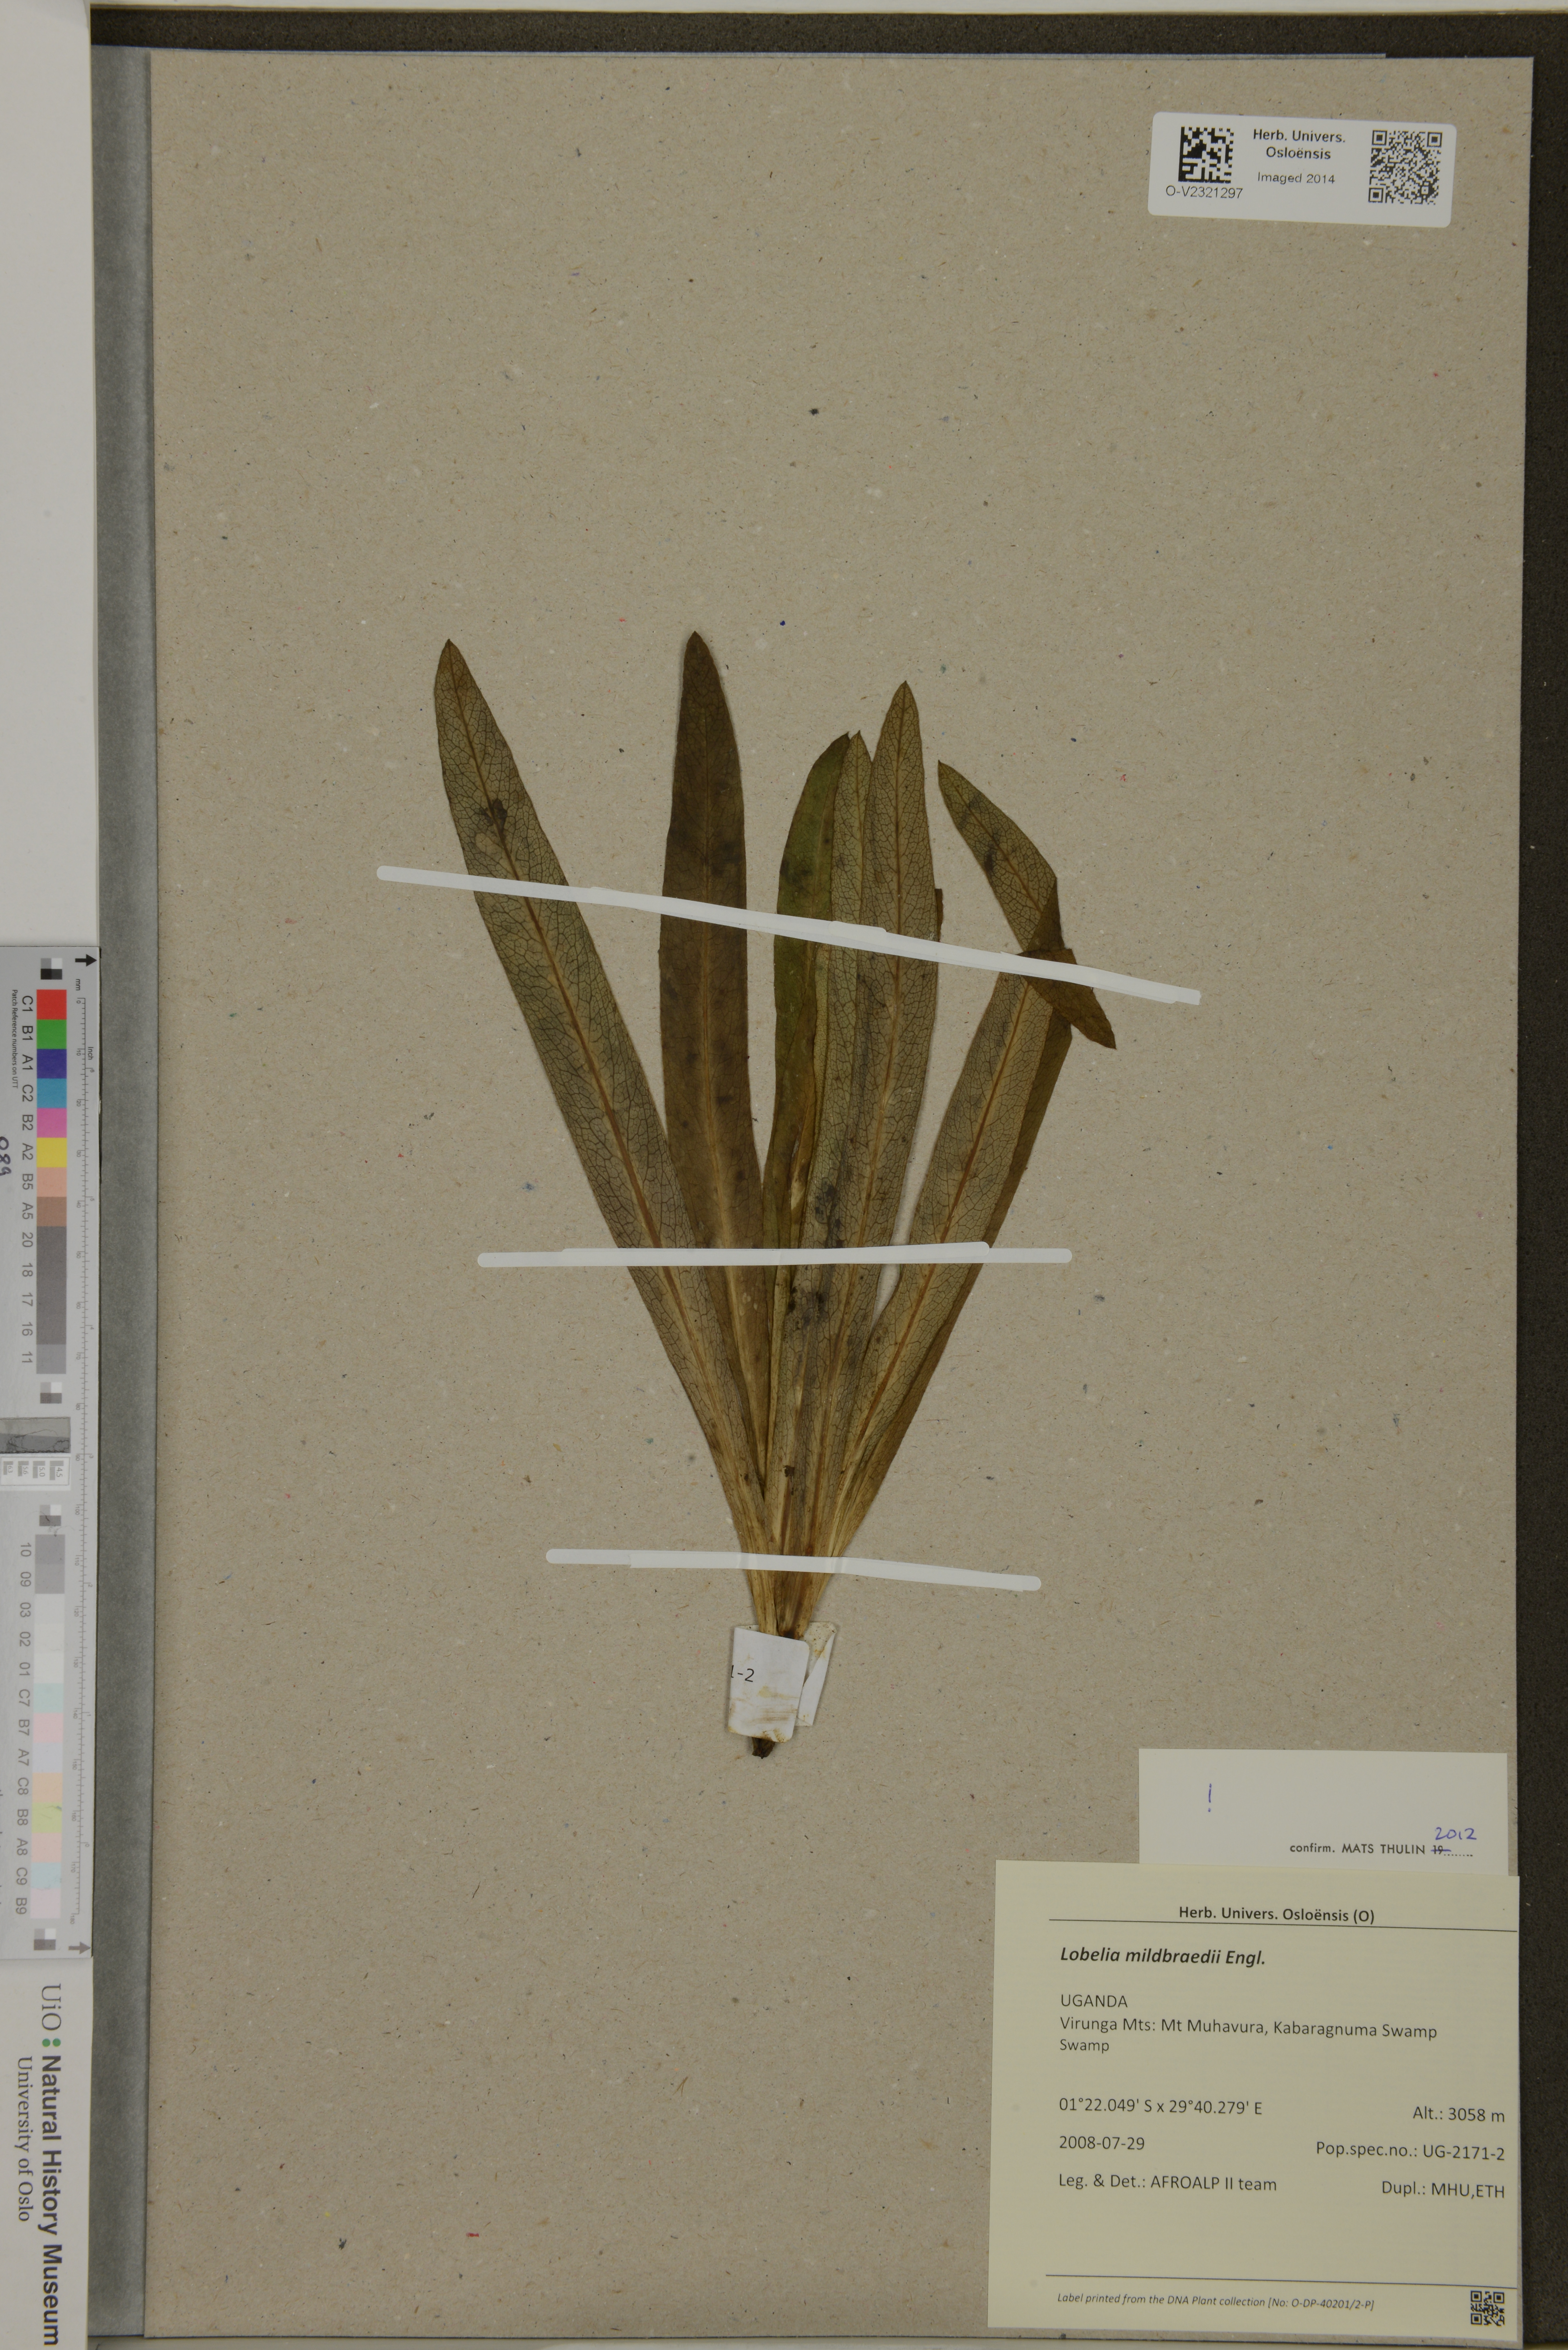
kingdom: Plantae
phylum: Tracheophyta
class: Magnoliopsida
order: Asterales
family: Campanulaceae
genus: Lobelia
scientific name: Lobelia mildbraedii
